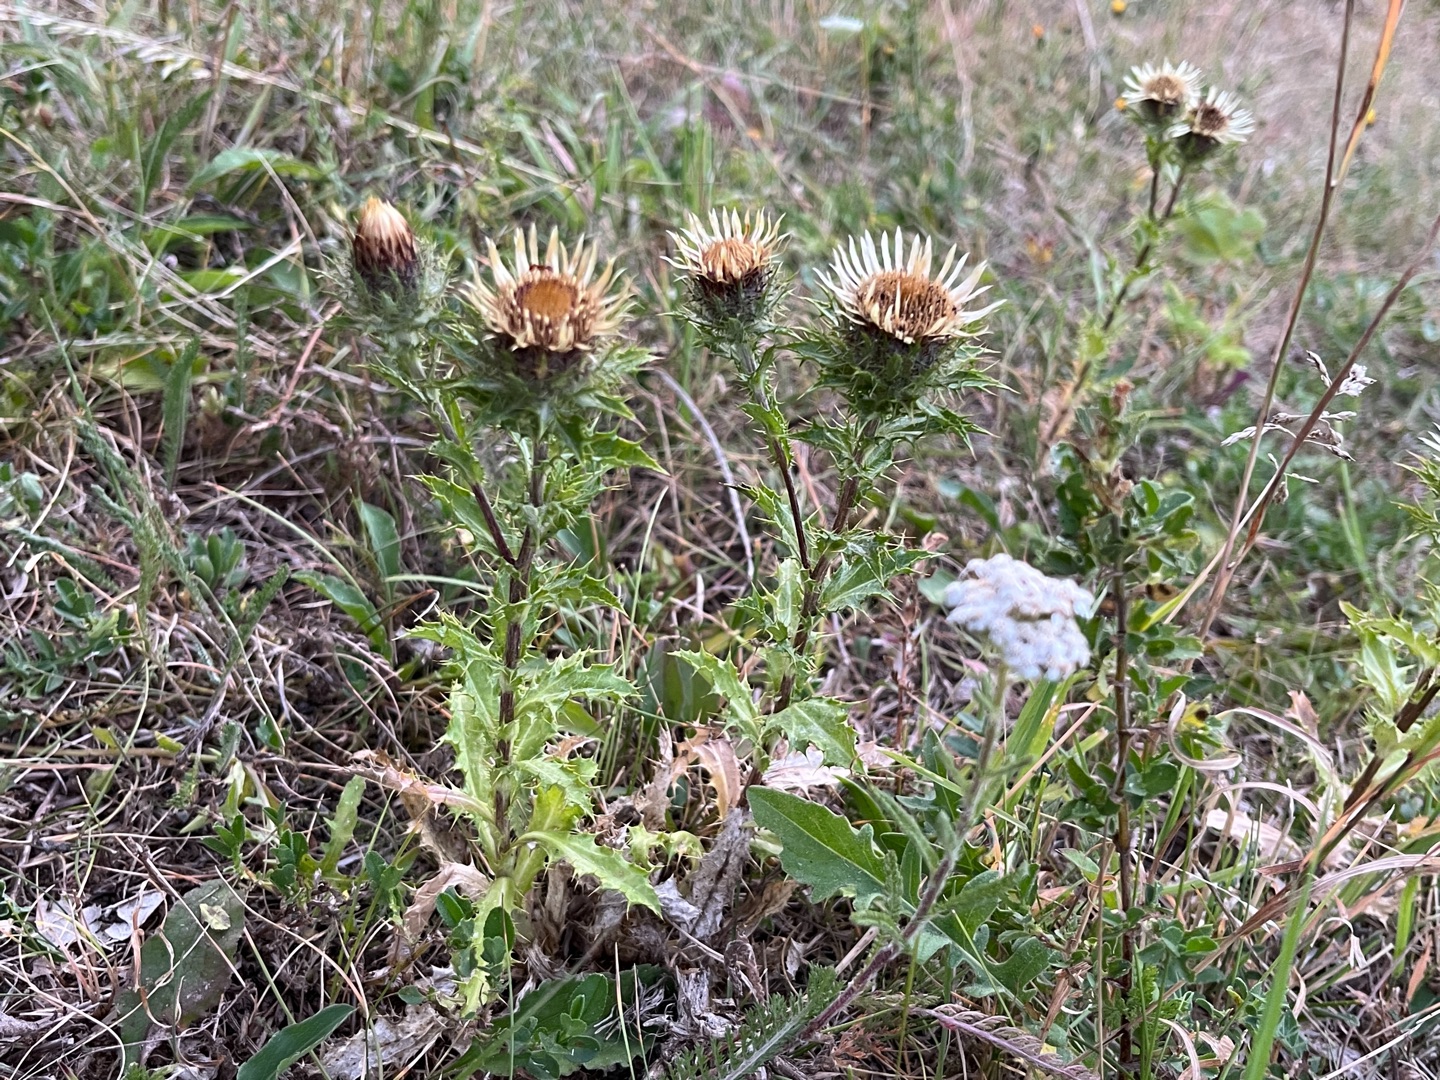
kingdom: Plantae
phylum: Tracheophyta
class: Magnoliopsida
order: Asterales
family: Asteraceae
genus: Carlina
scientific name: Carlina vulgaris
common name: Bakketidsel (underart)
